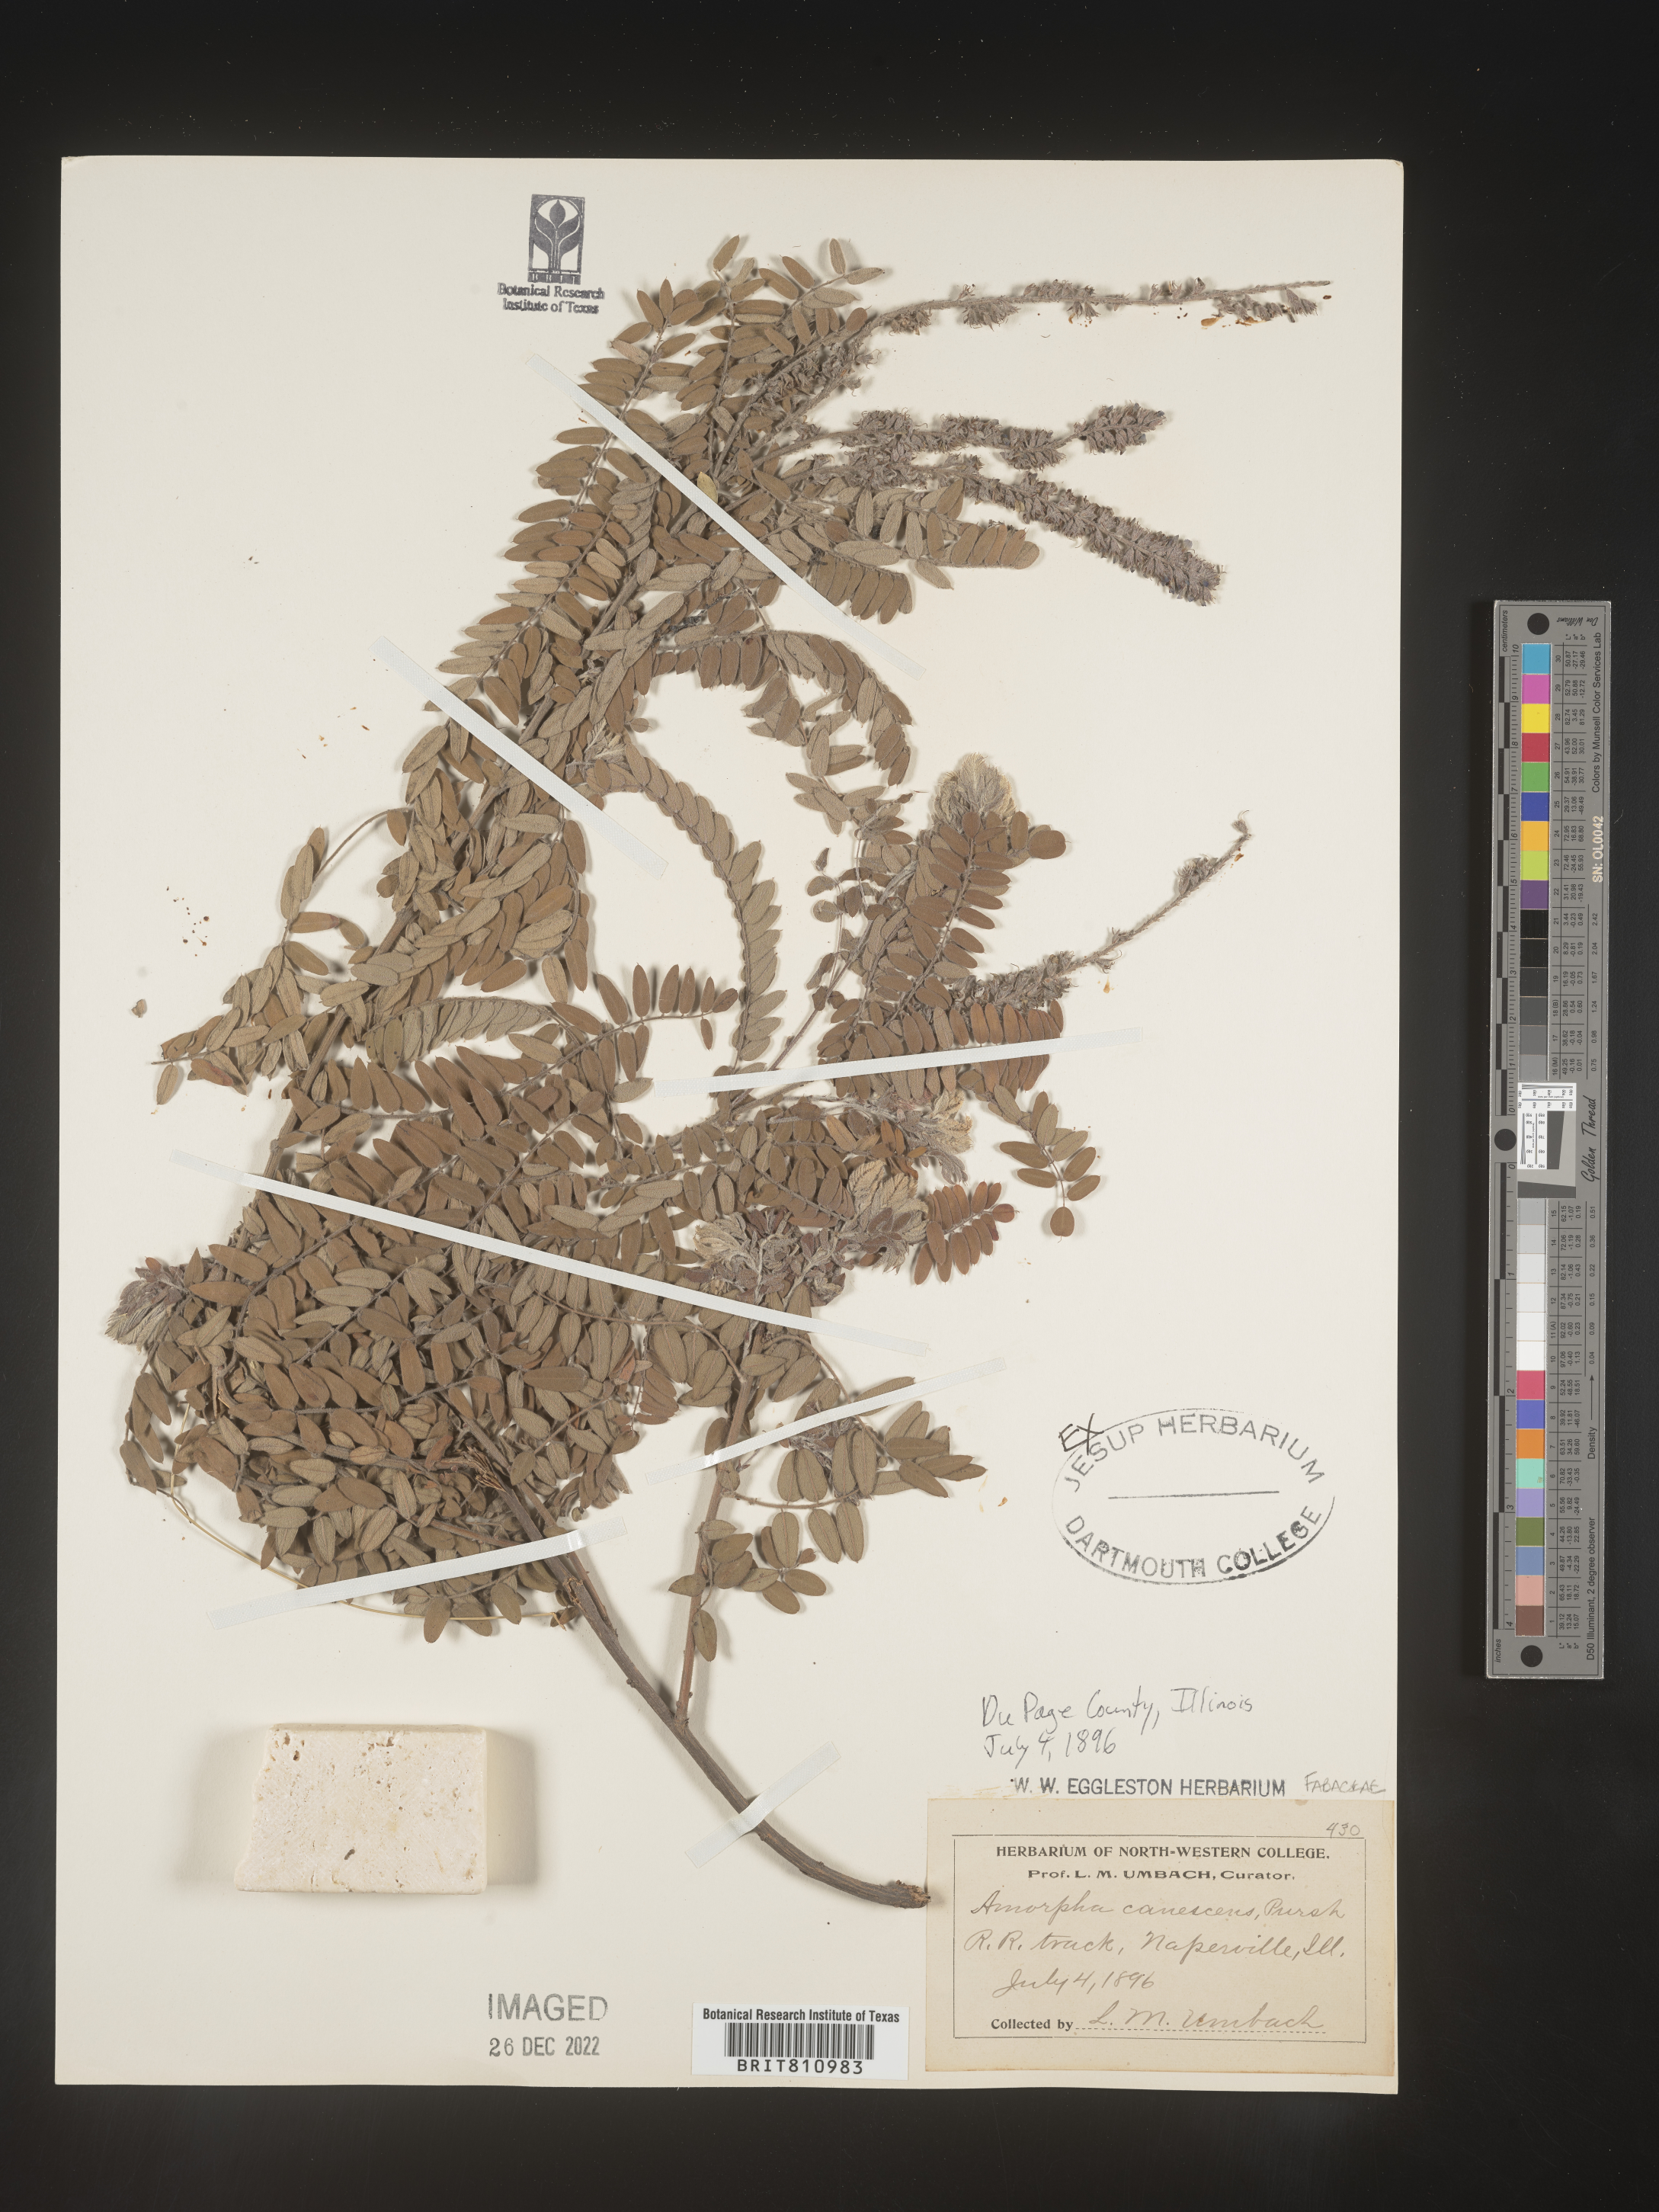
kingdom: Plantae
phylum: Tracheophyta
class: Magnoliopsida
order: Fabales
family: Fabaceae
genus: Amorpha
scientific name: Amorpha canescens
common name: Leadplant
